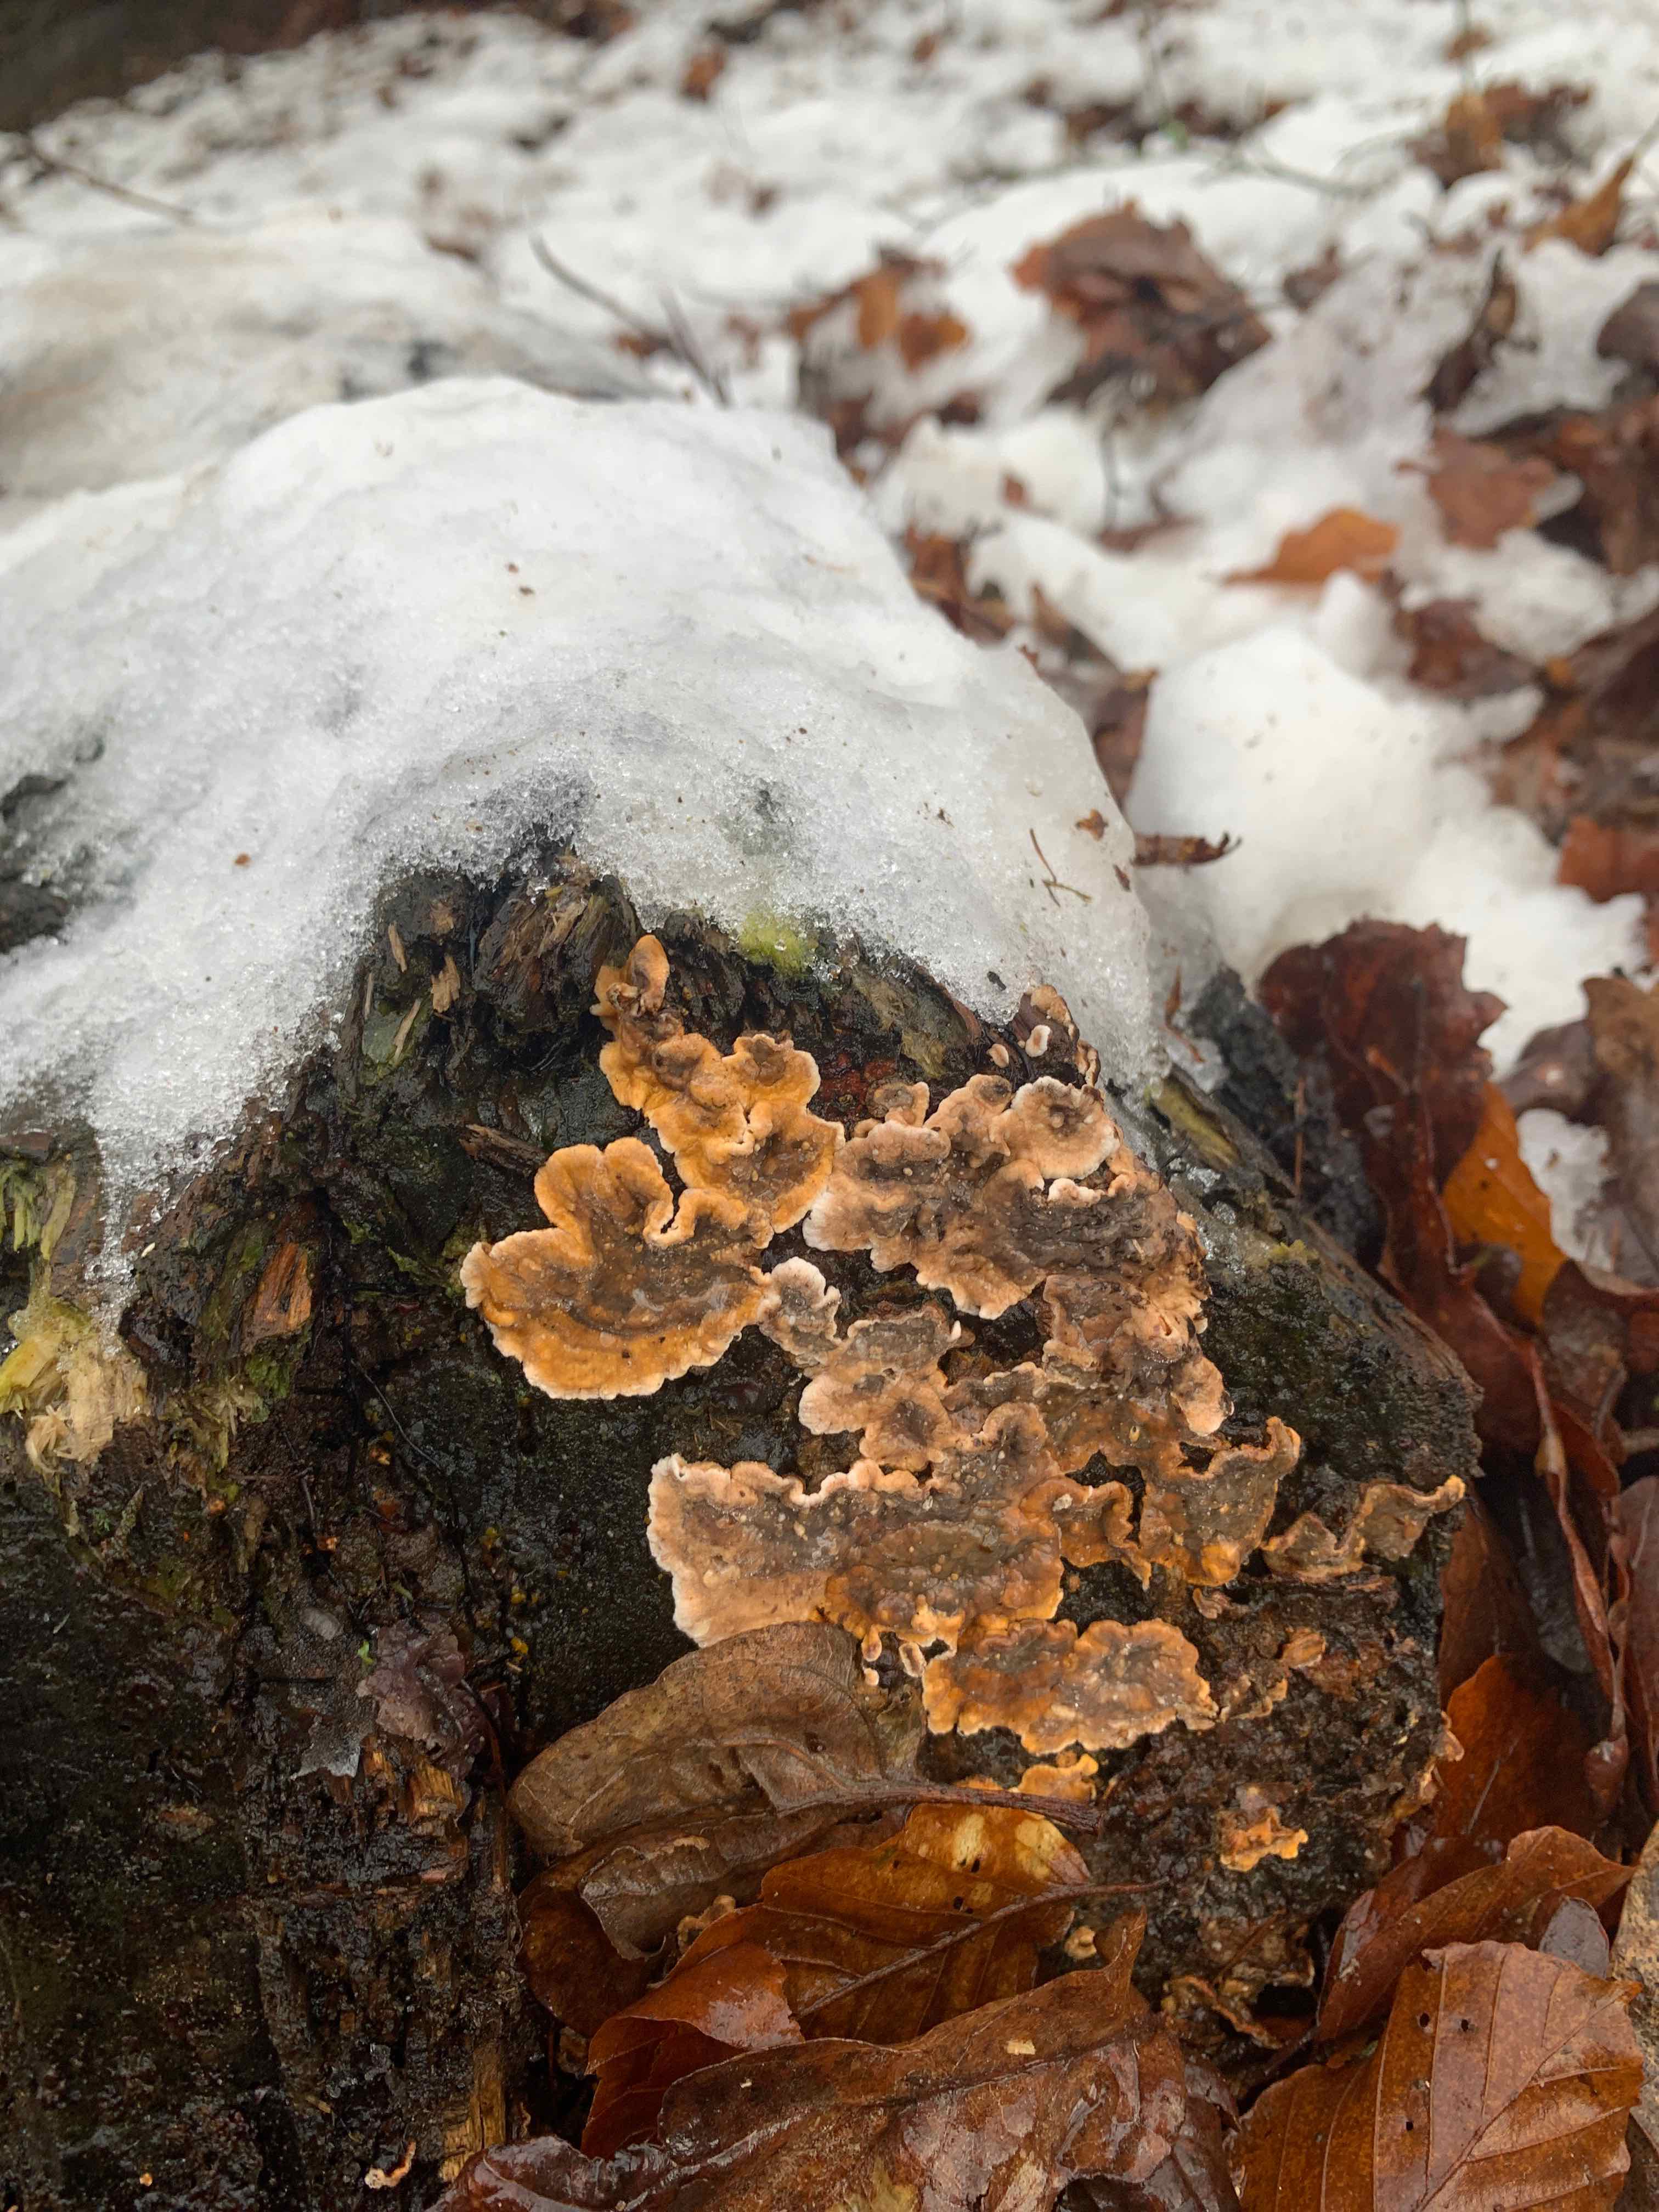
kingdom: Fungi
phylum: Basidiomycota
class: Agaricomycetes
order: Russulales
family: Stereaceae
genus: Stereum
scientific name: Stereum hirsutum
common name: håret lædersvamp
